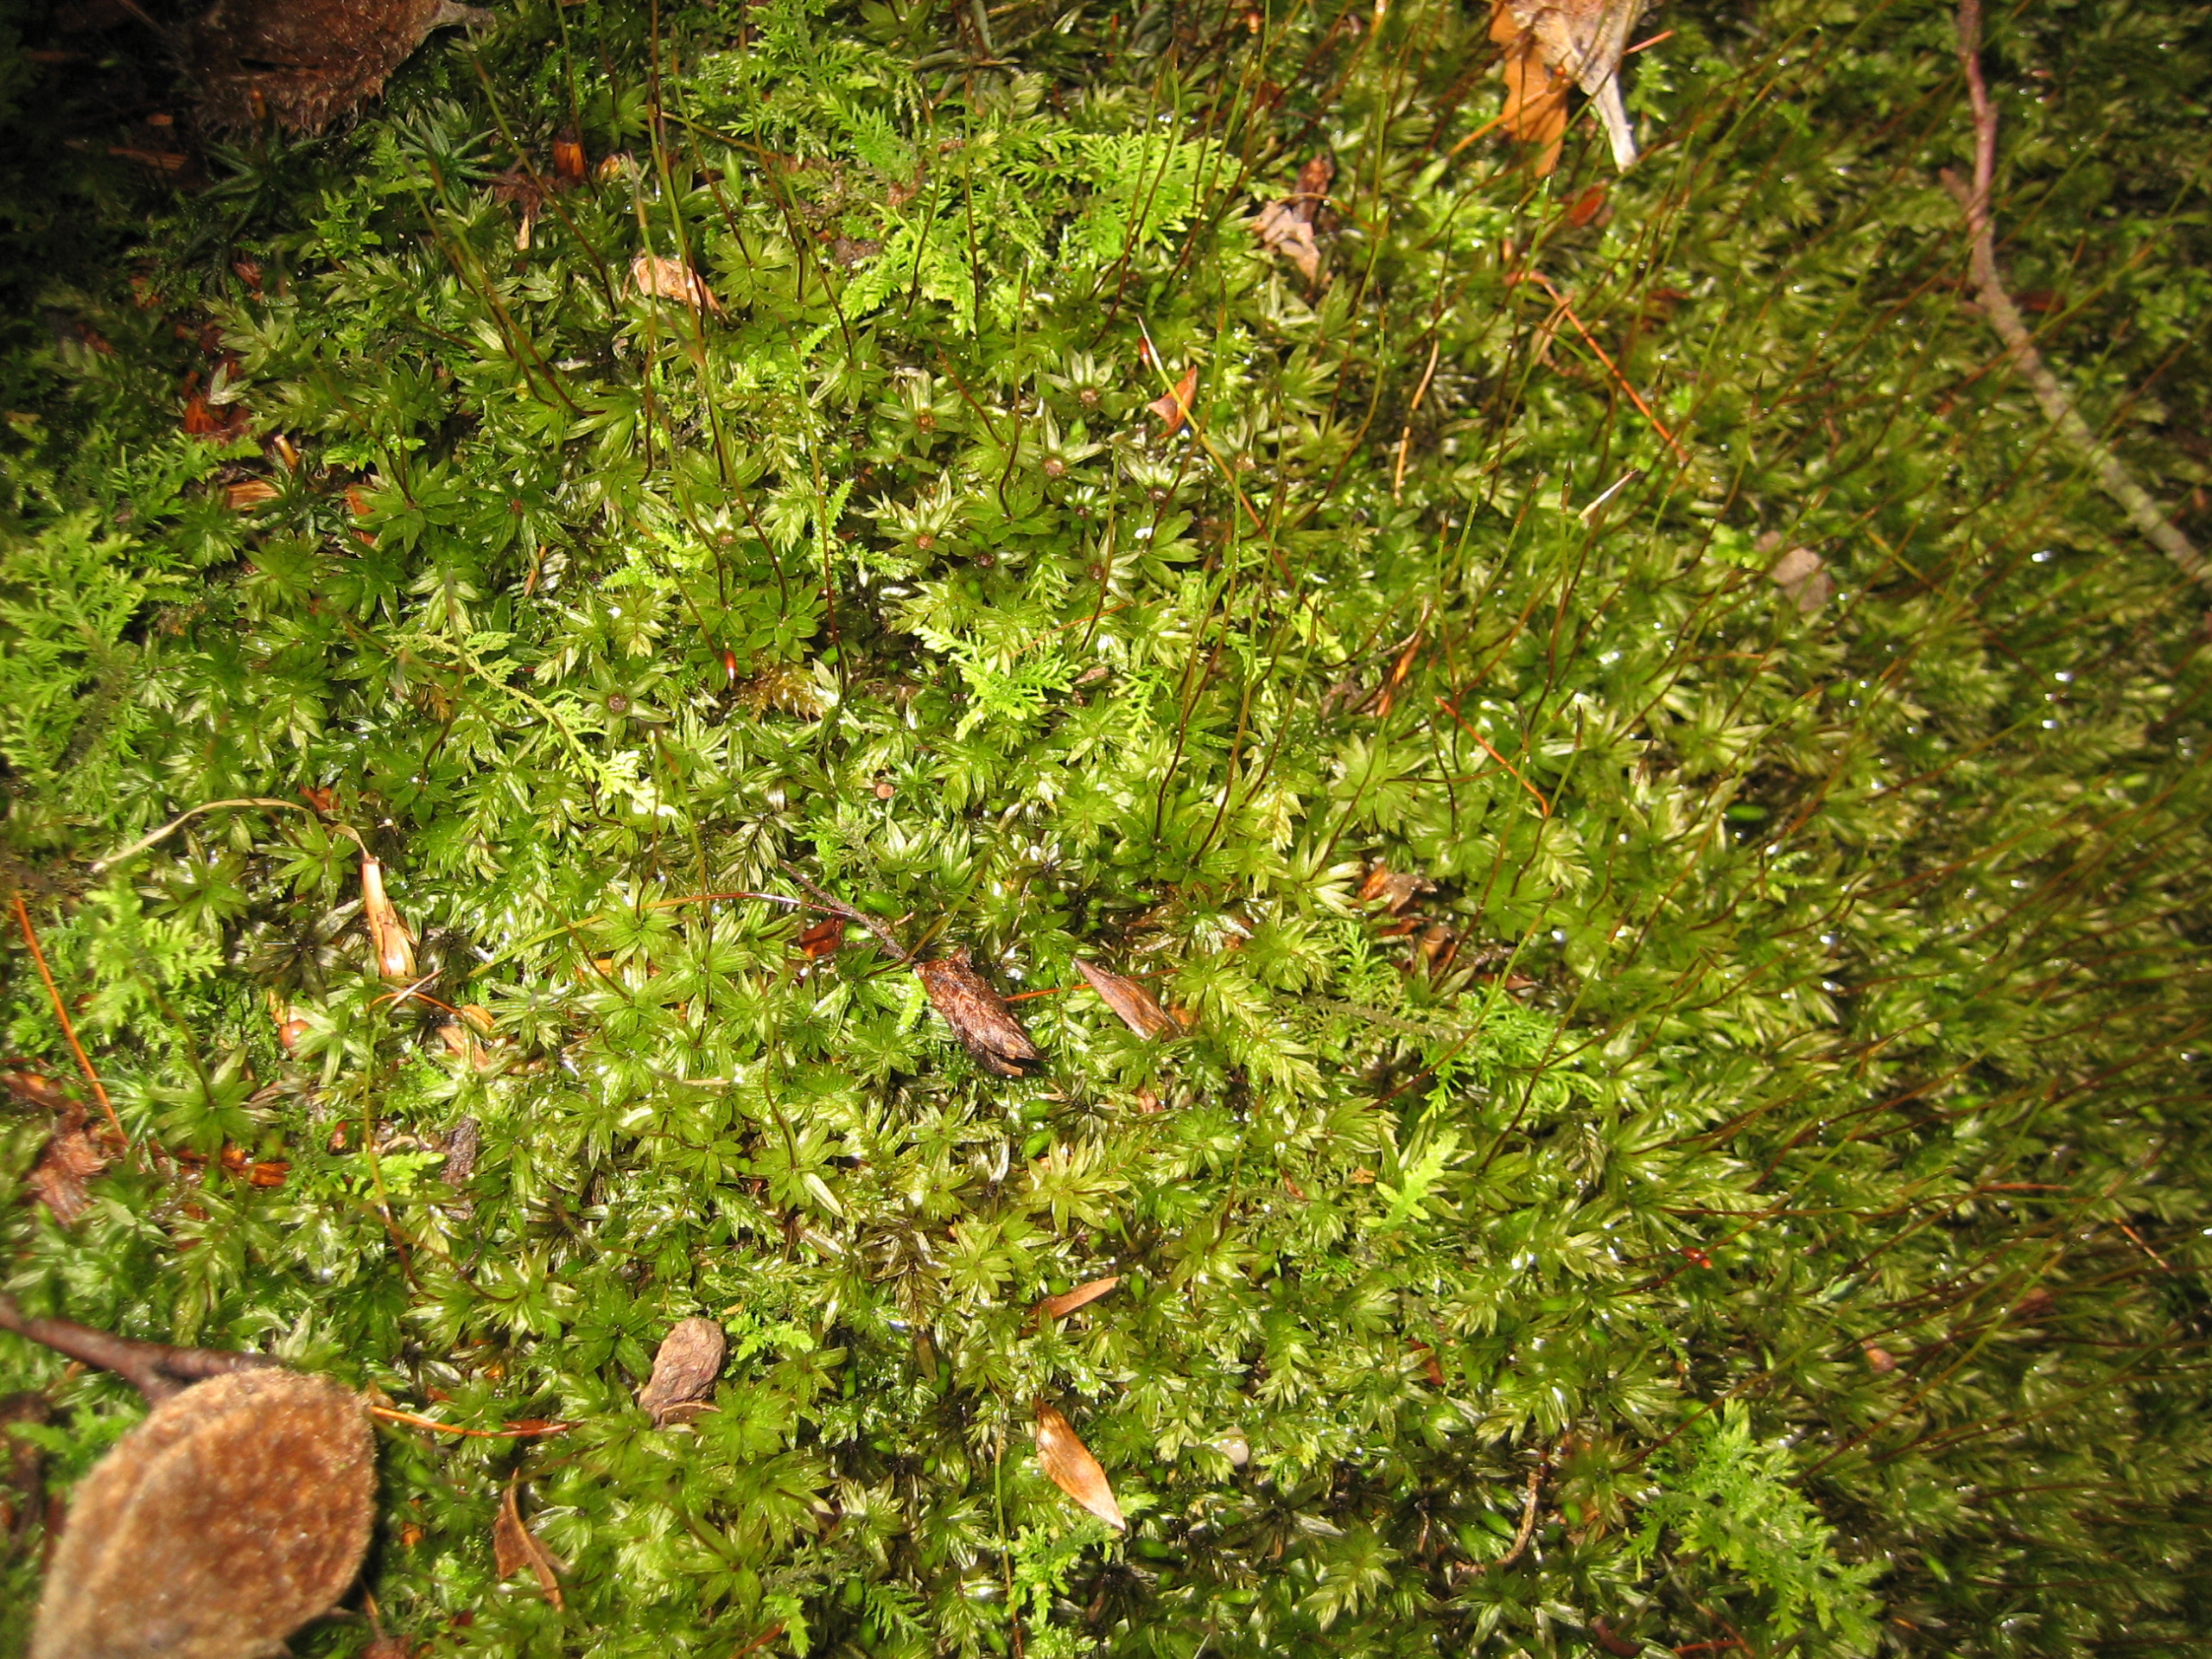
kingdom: Plantae
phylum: Bryophyta
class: Bryopsida
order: Bryales
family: Mniaceae
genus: Mnium
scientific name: Mnium hornum
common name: Brunfiltet stjernemos
